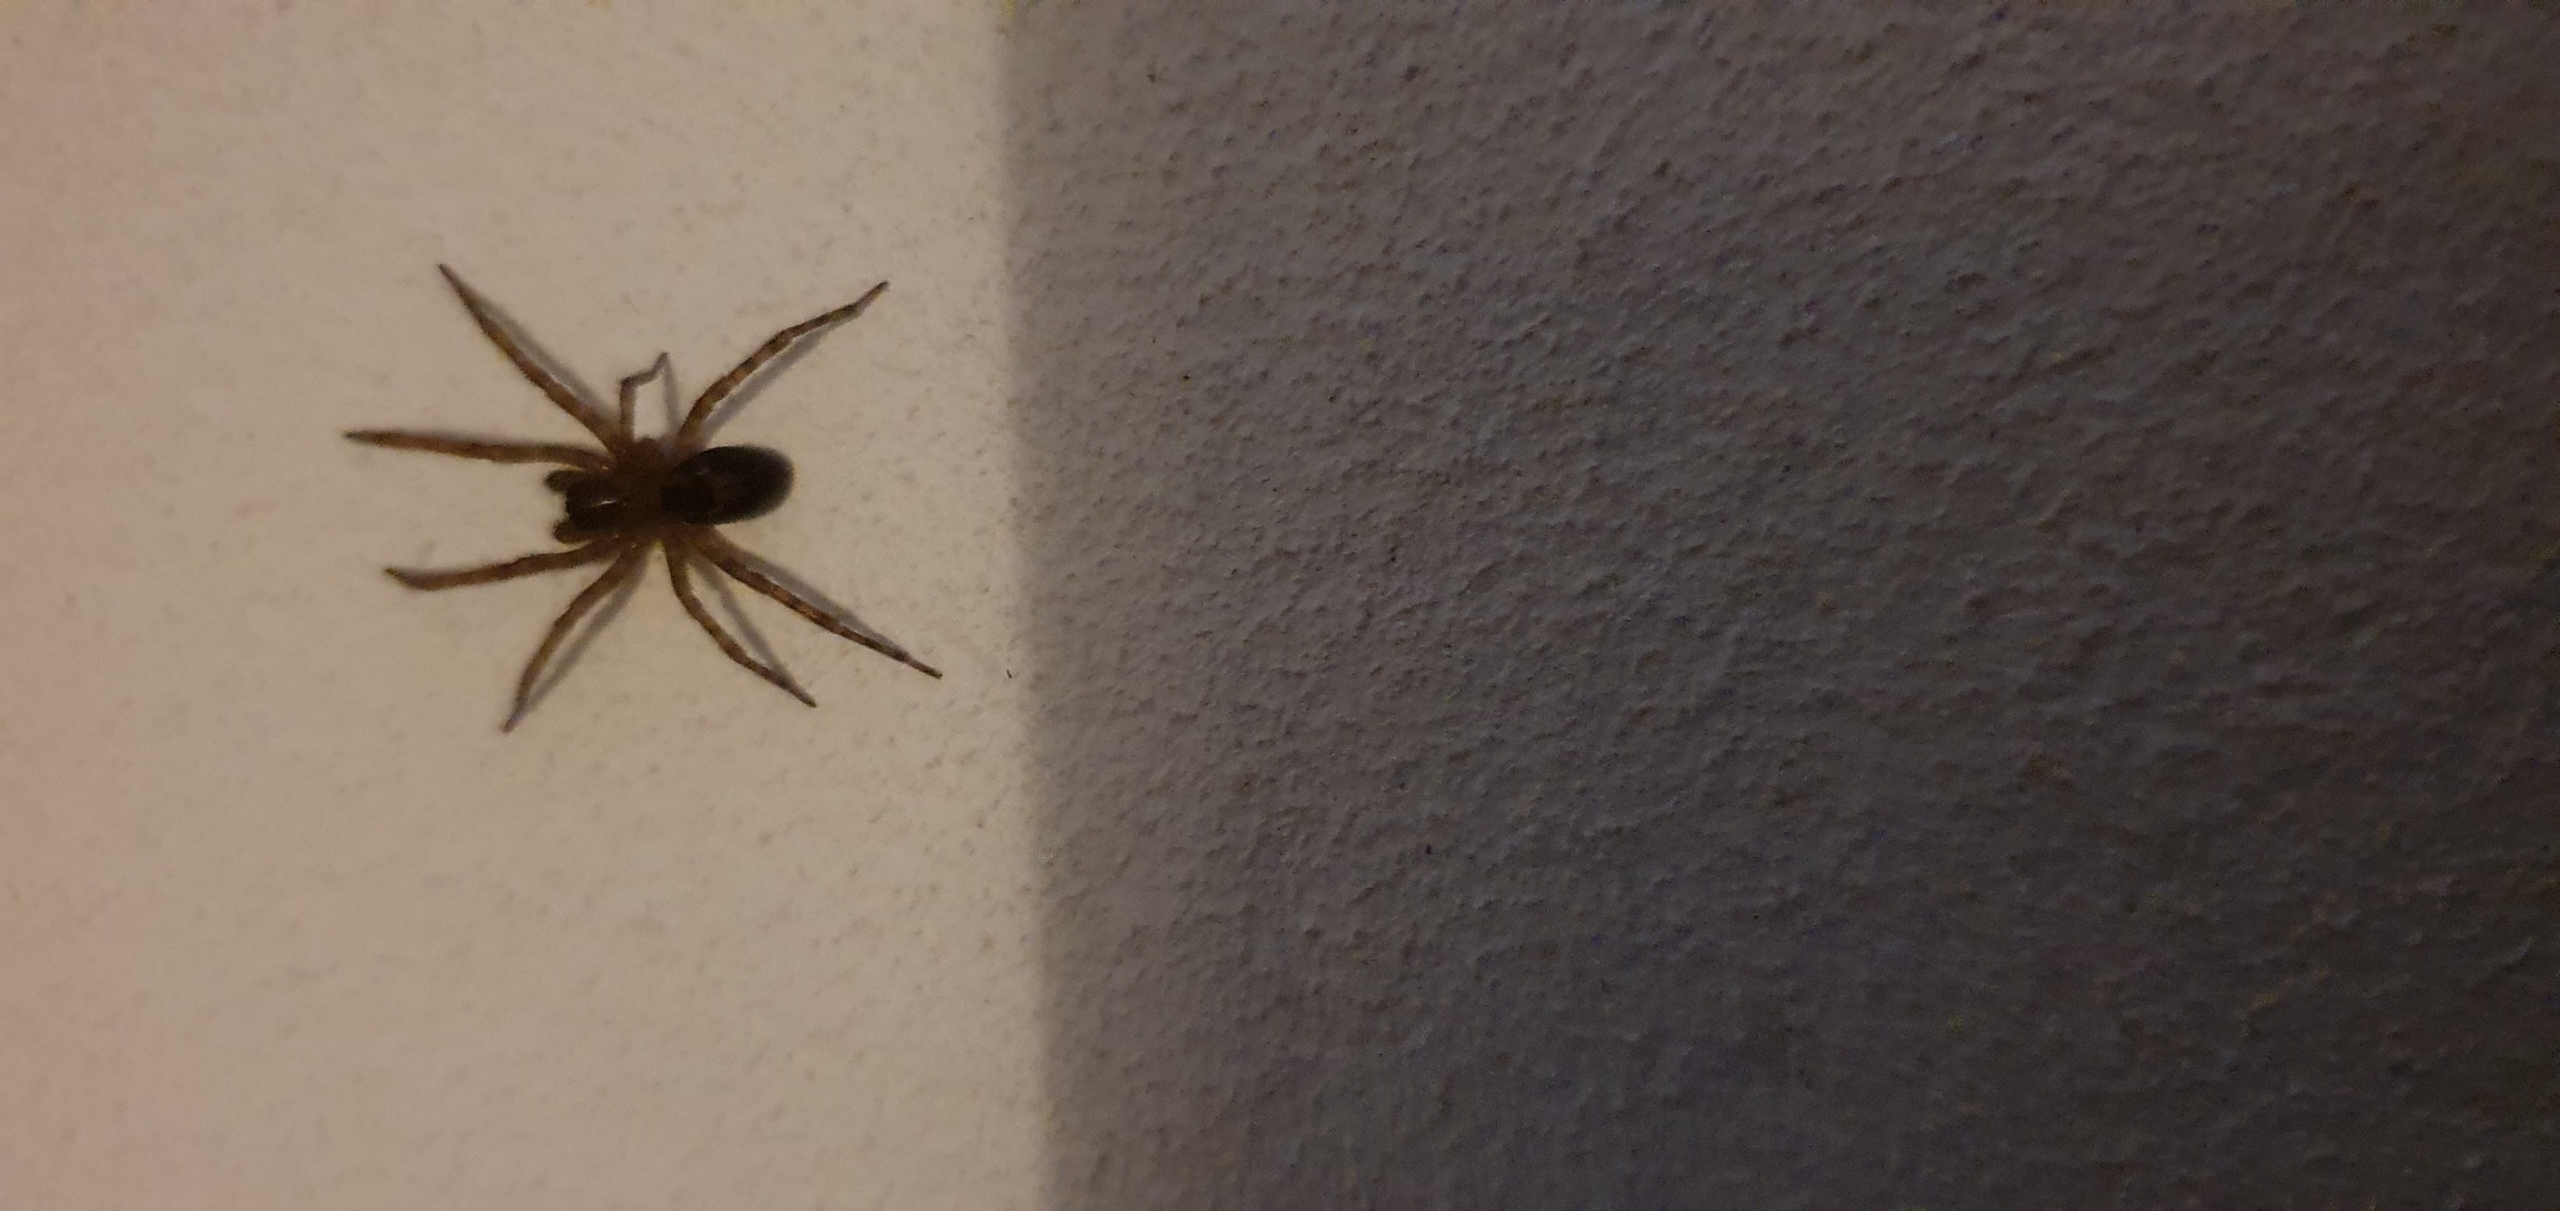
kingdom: Animalia
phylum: Arthropoda
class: Arachnida
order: Araneae
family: Amaurobiidae
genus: Amaurobius
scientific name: Amaurobius
